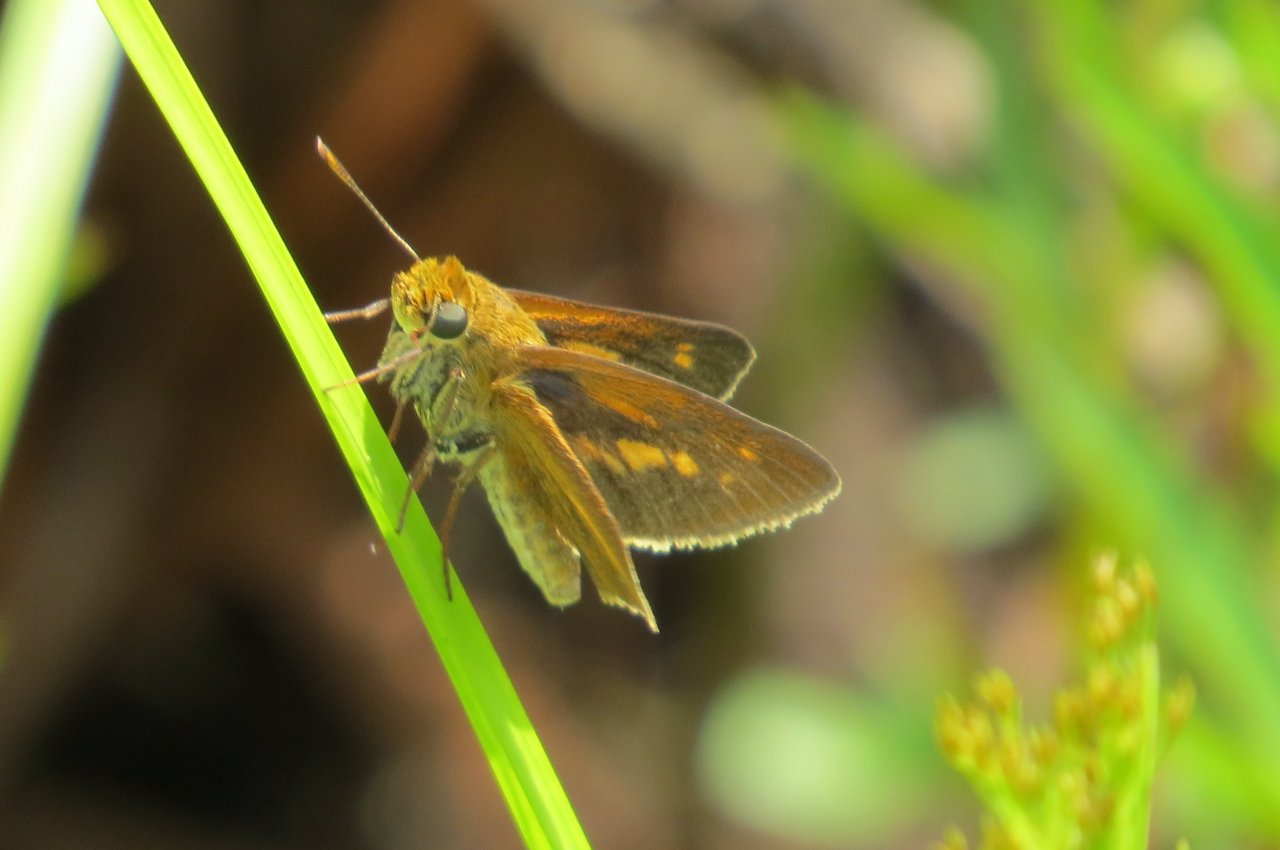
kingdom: Animalia
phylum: Arthropoda
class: Insecta
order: Lepidoptera
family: Hesperiidae
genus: Euphyes
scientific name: Euphyes dion
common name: Dion Skipper
